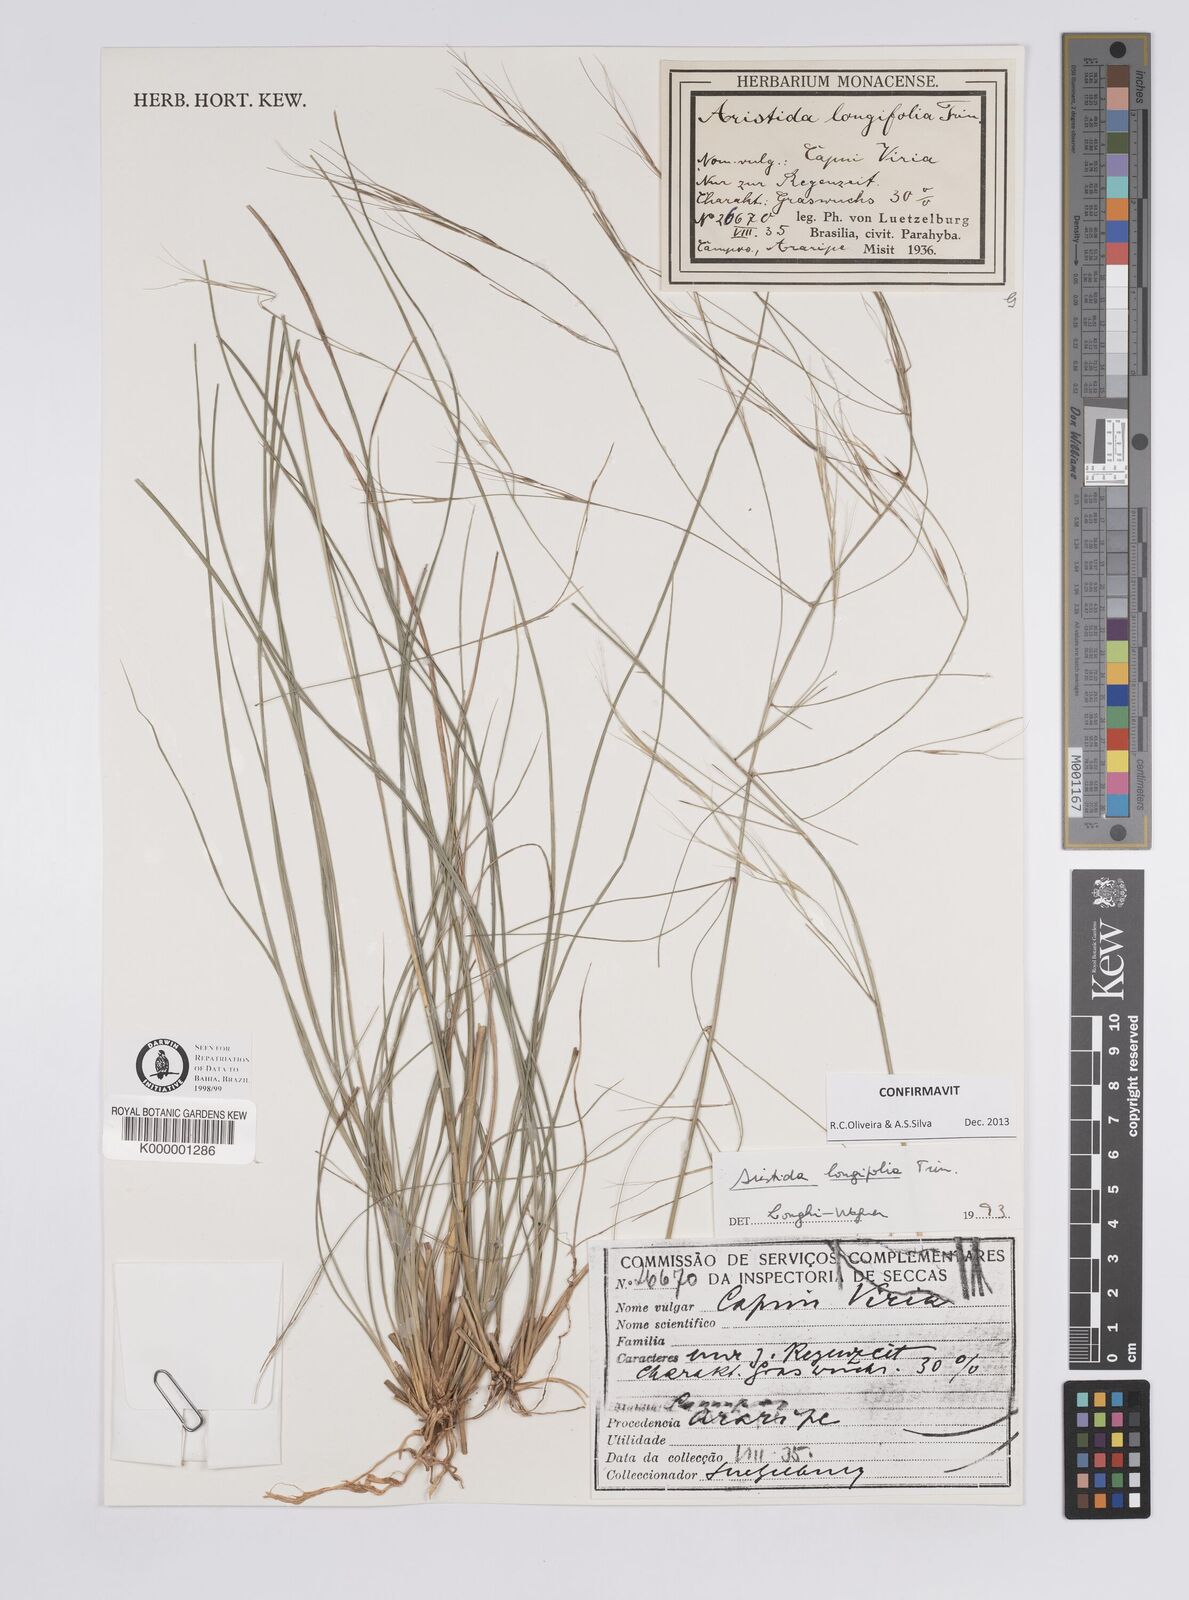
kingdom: Plantae
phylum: Tracheophyta
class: Liliopsida
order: Poales
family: Poaceae
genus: Aristida
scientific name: Aristida longifolia
